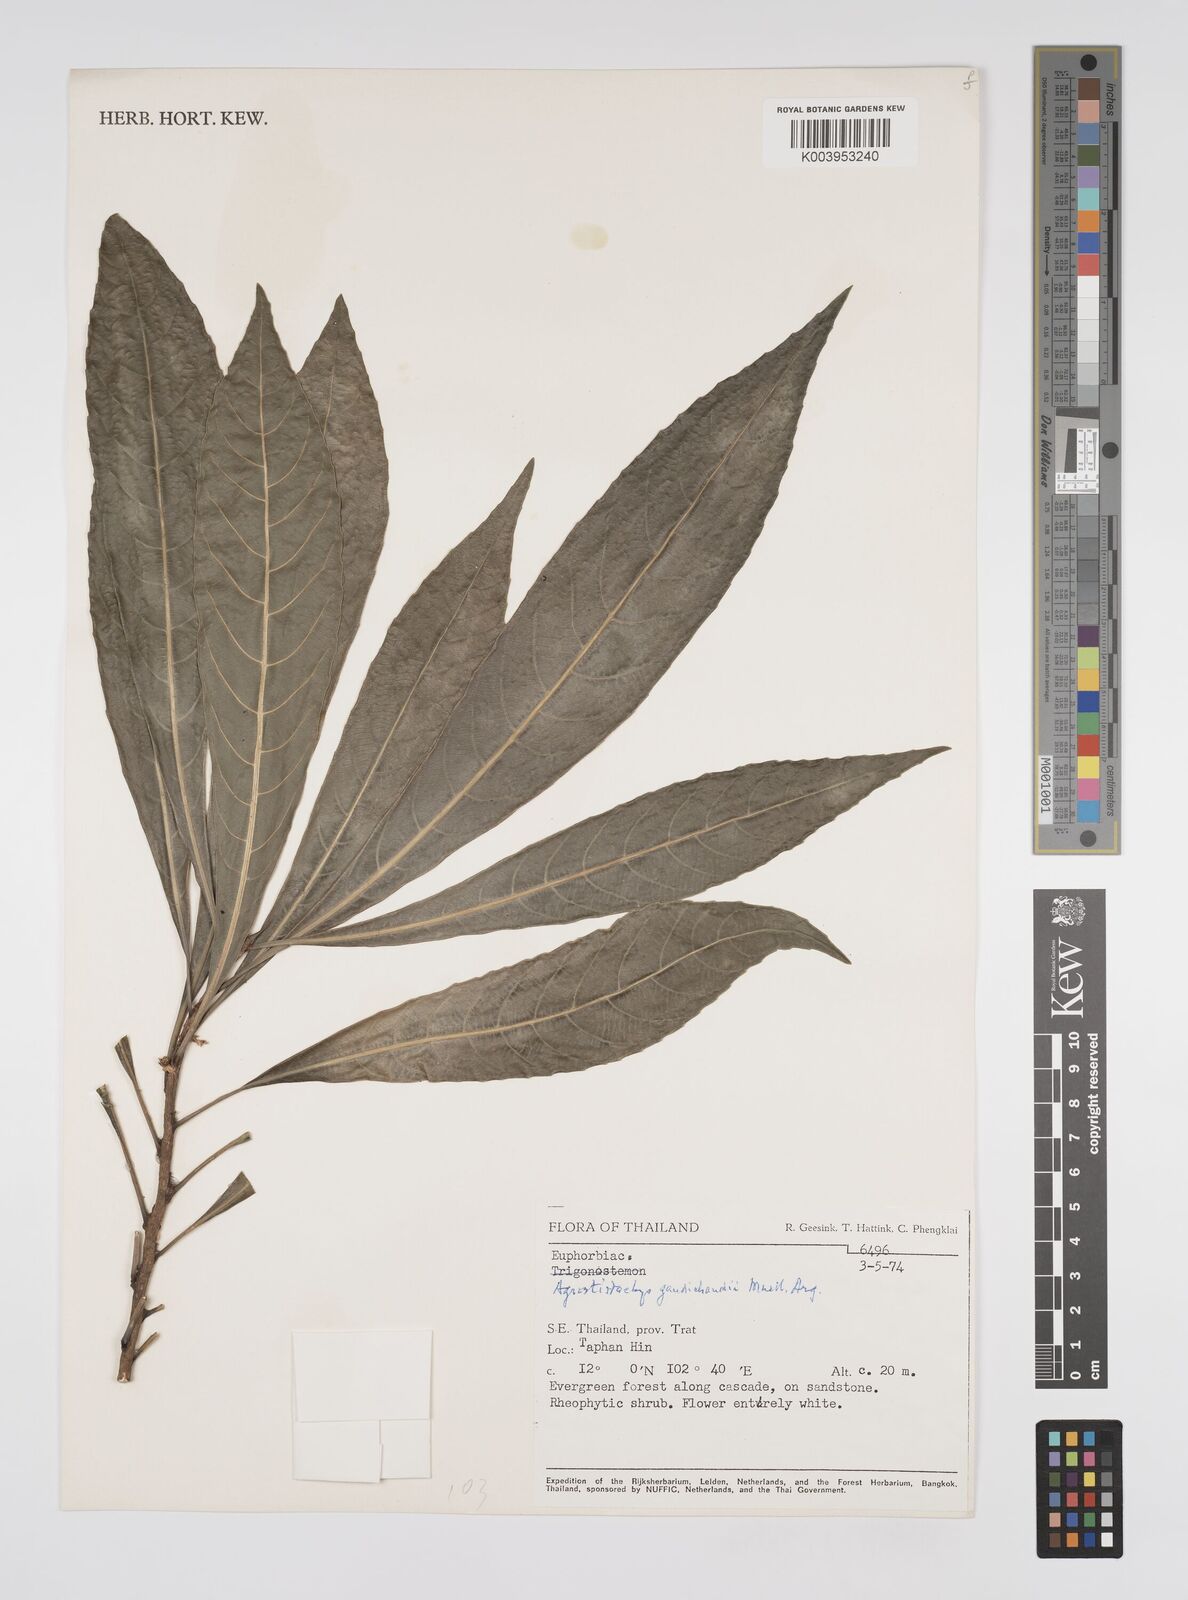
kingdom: Plantae
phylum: Tracheophyta
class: Magnoliopsida
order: Malpighiales
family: Euphorbiaceae
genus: Agrostistachys
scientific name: Agrostistachys gaudichaudii
